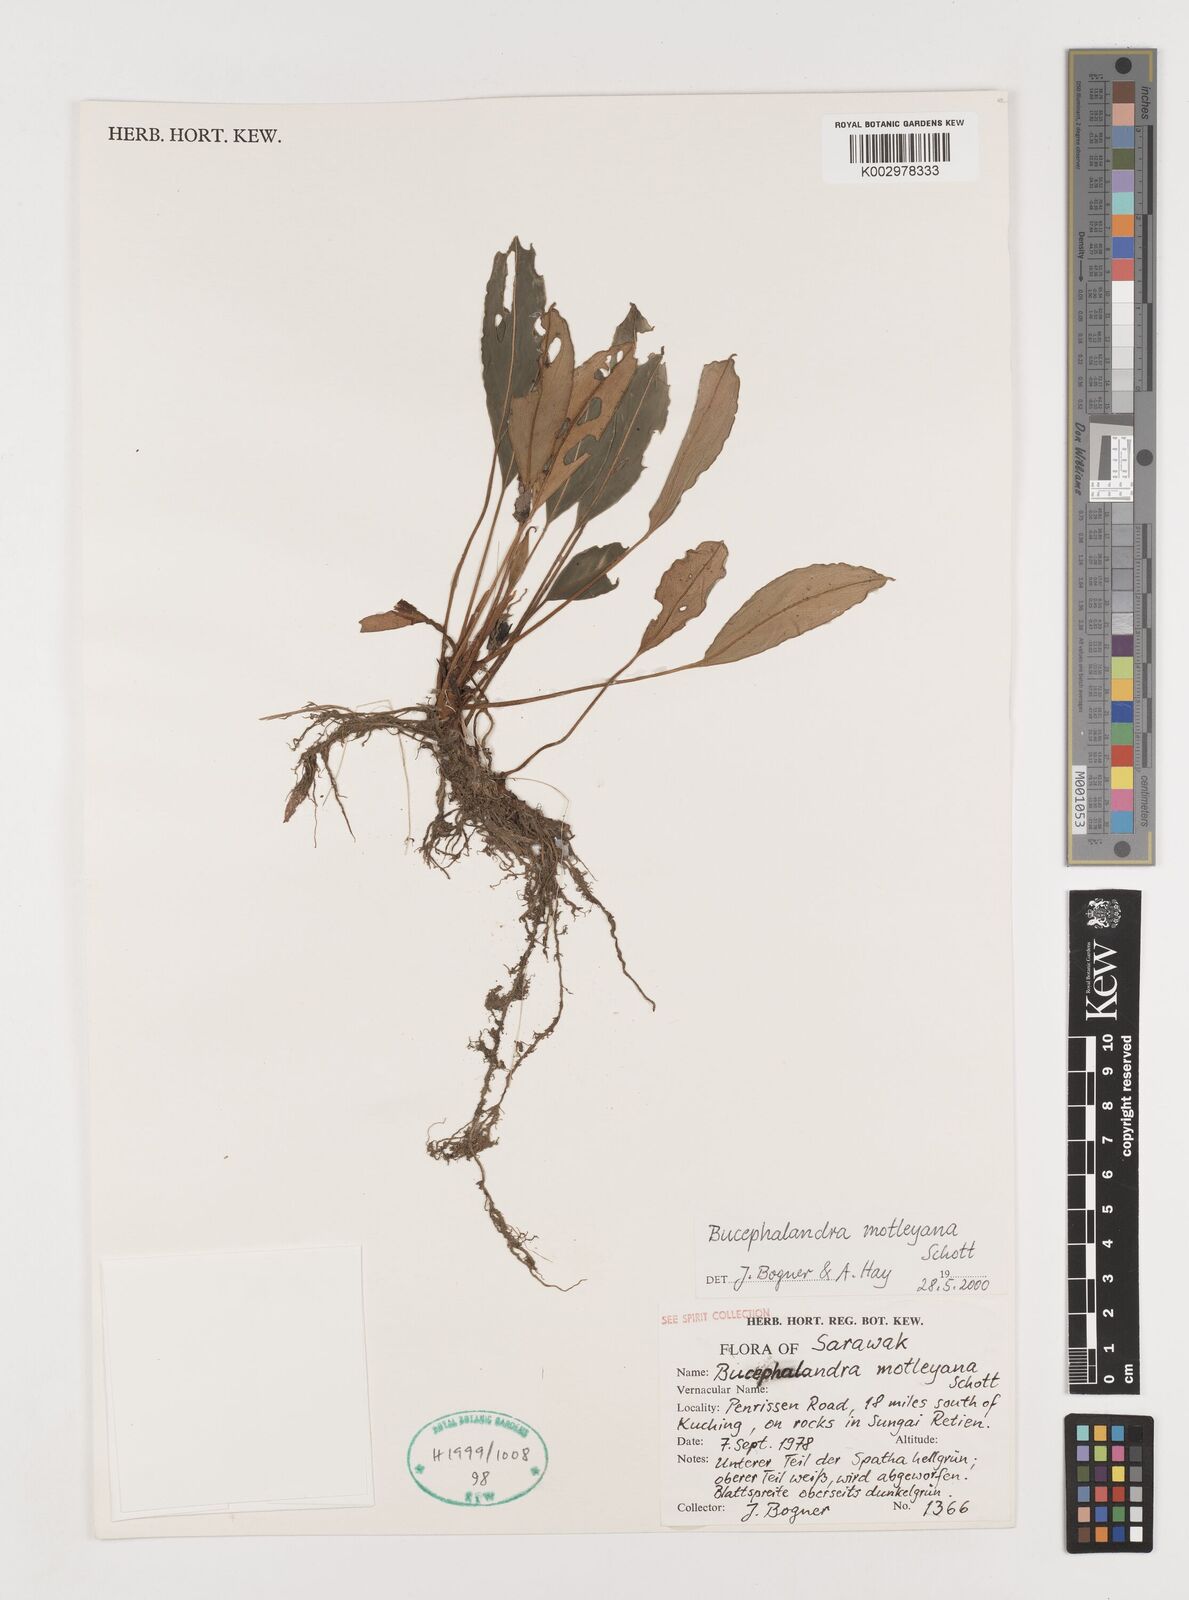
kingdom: Plantae
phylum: Tracheophyta
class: Liliopsida
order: Alismatales
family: Araceae
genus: Bucephalandra
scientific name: Bucephalandra motleyana
